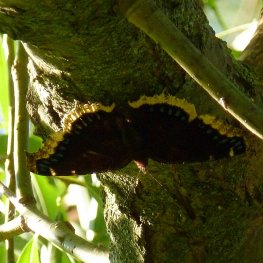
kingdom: Animalia
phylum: Arthropoda
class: Insecta
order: Lepidoptera
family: Nymphalidae
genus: Nymphalis
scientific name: Nymphalis antiopa
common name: Mourning Cloak
